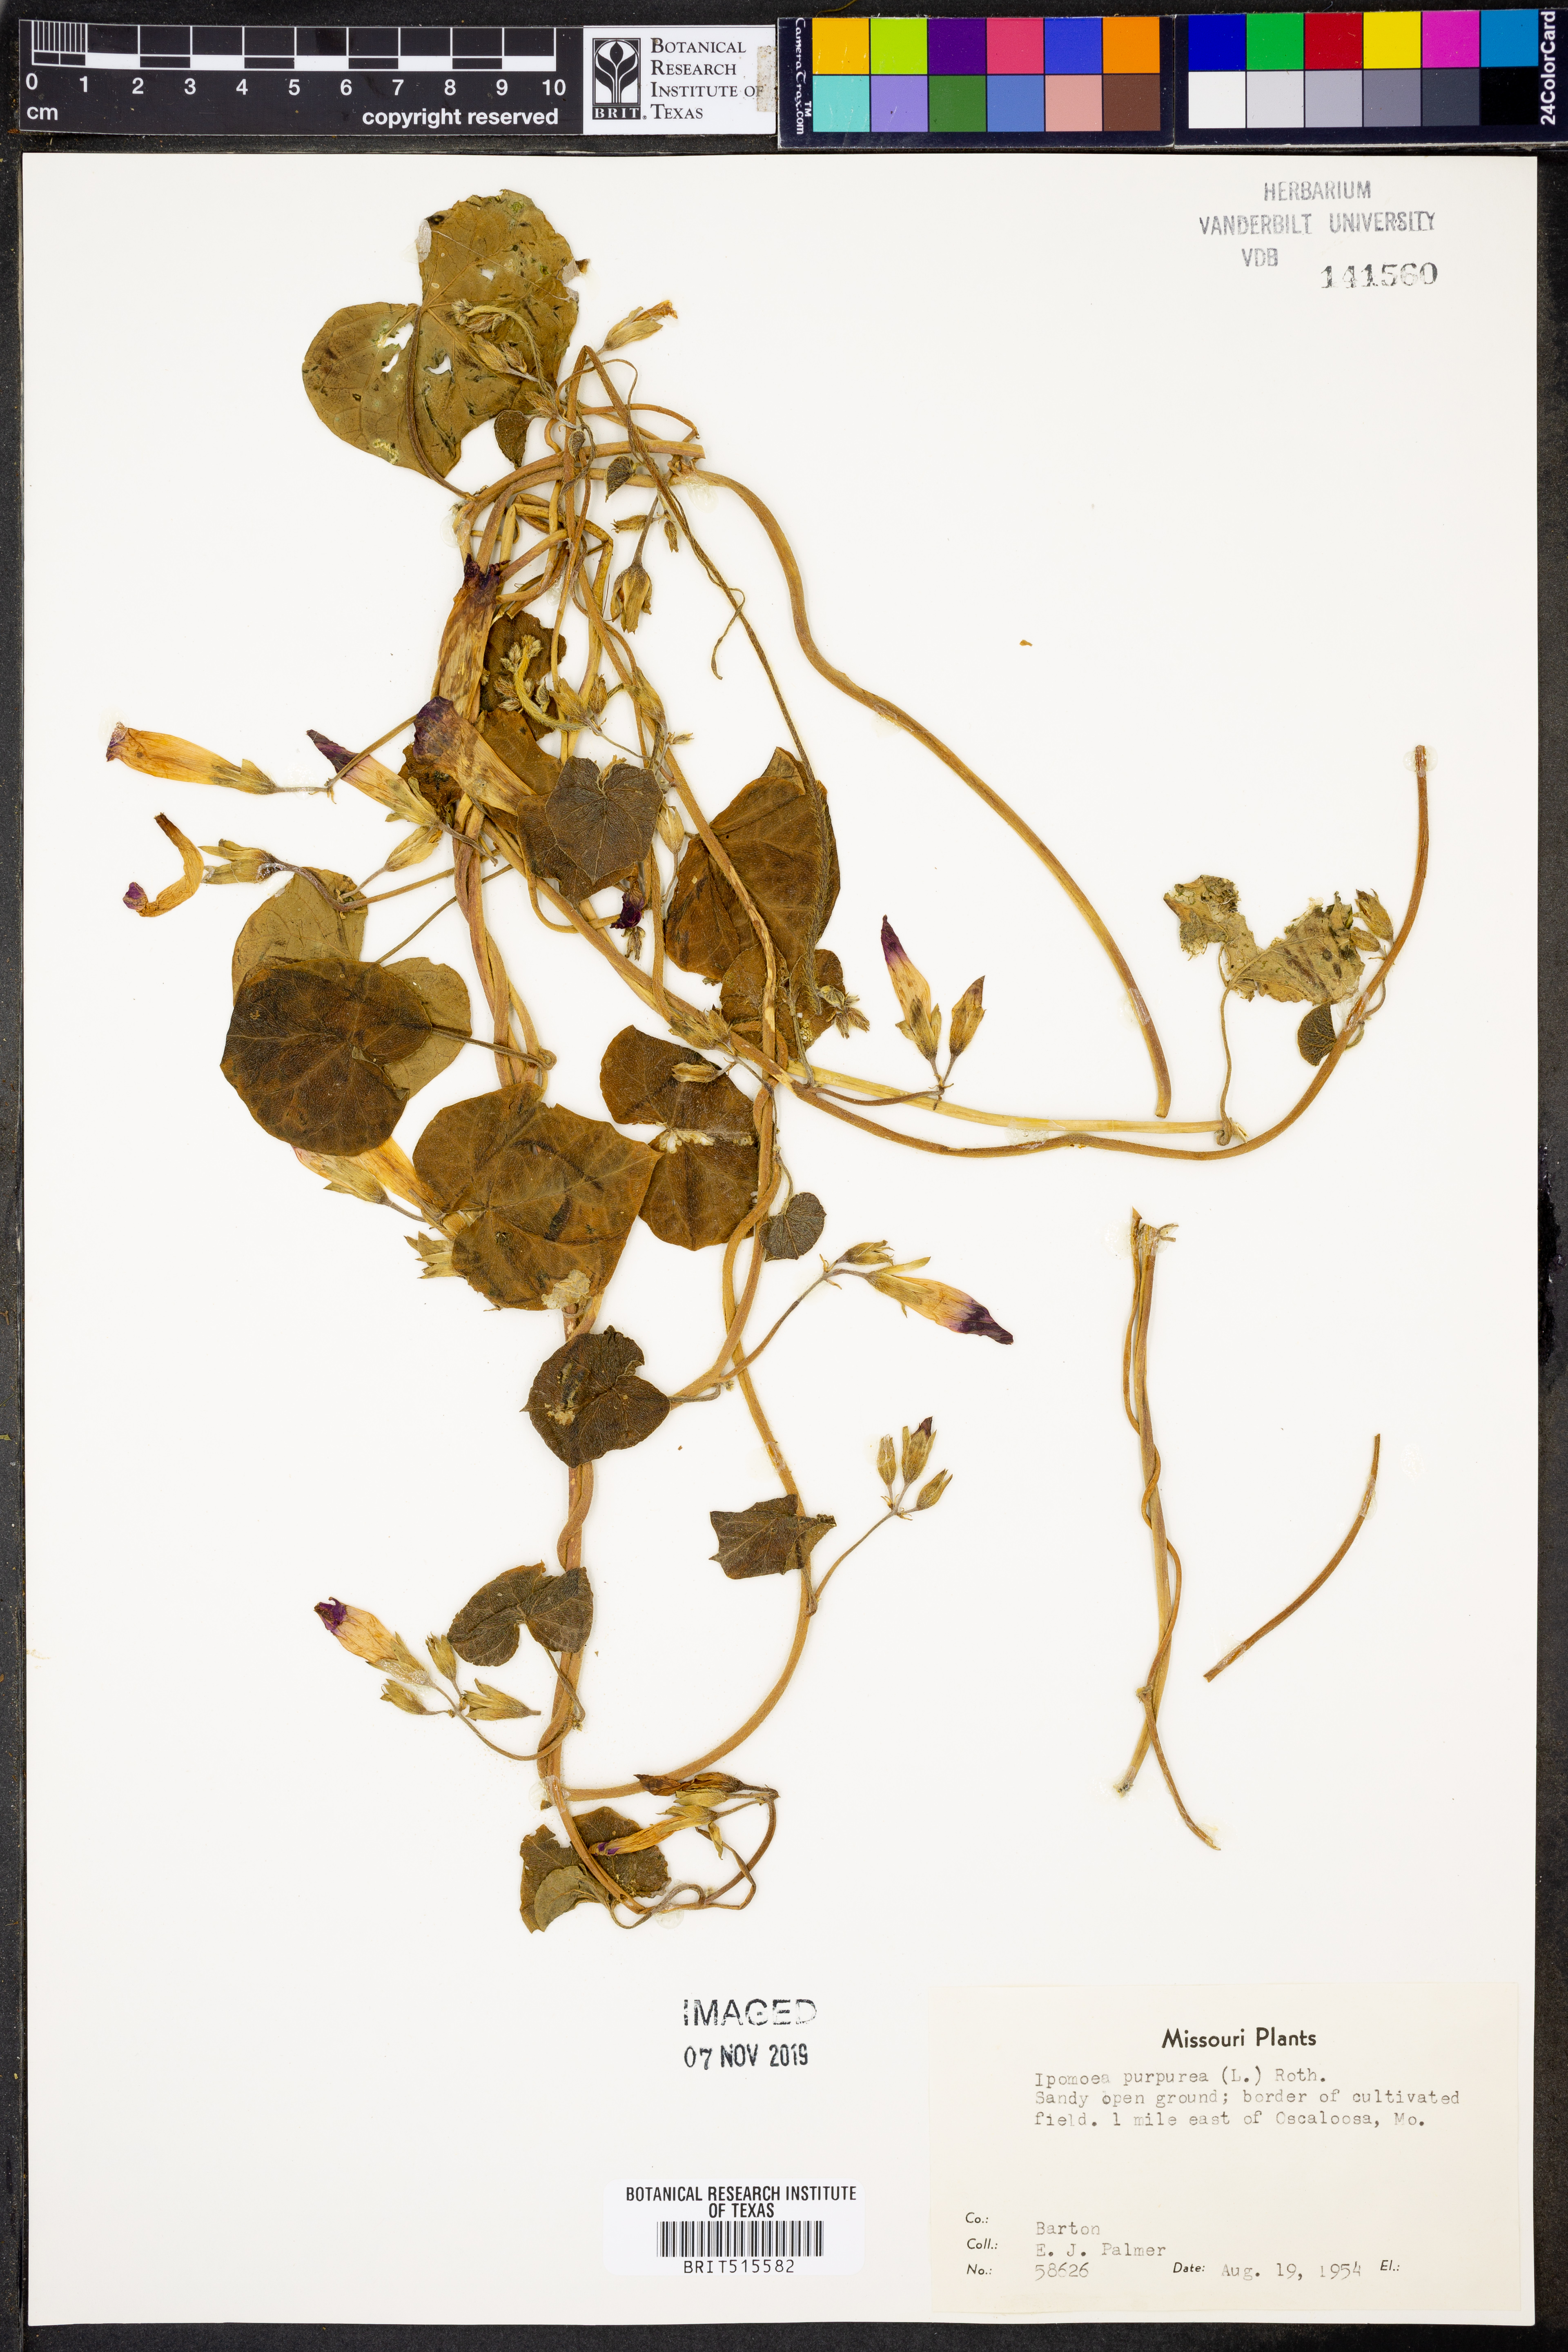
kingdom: Plantae
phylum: Tracheophyta
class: Magnoliopsida
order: Solanales
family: Convolvulaceae
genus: Ipomoea
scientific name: Ipomoea purpurea
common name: Common morning-glory
